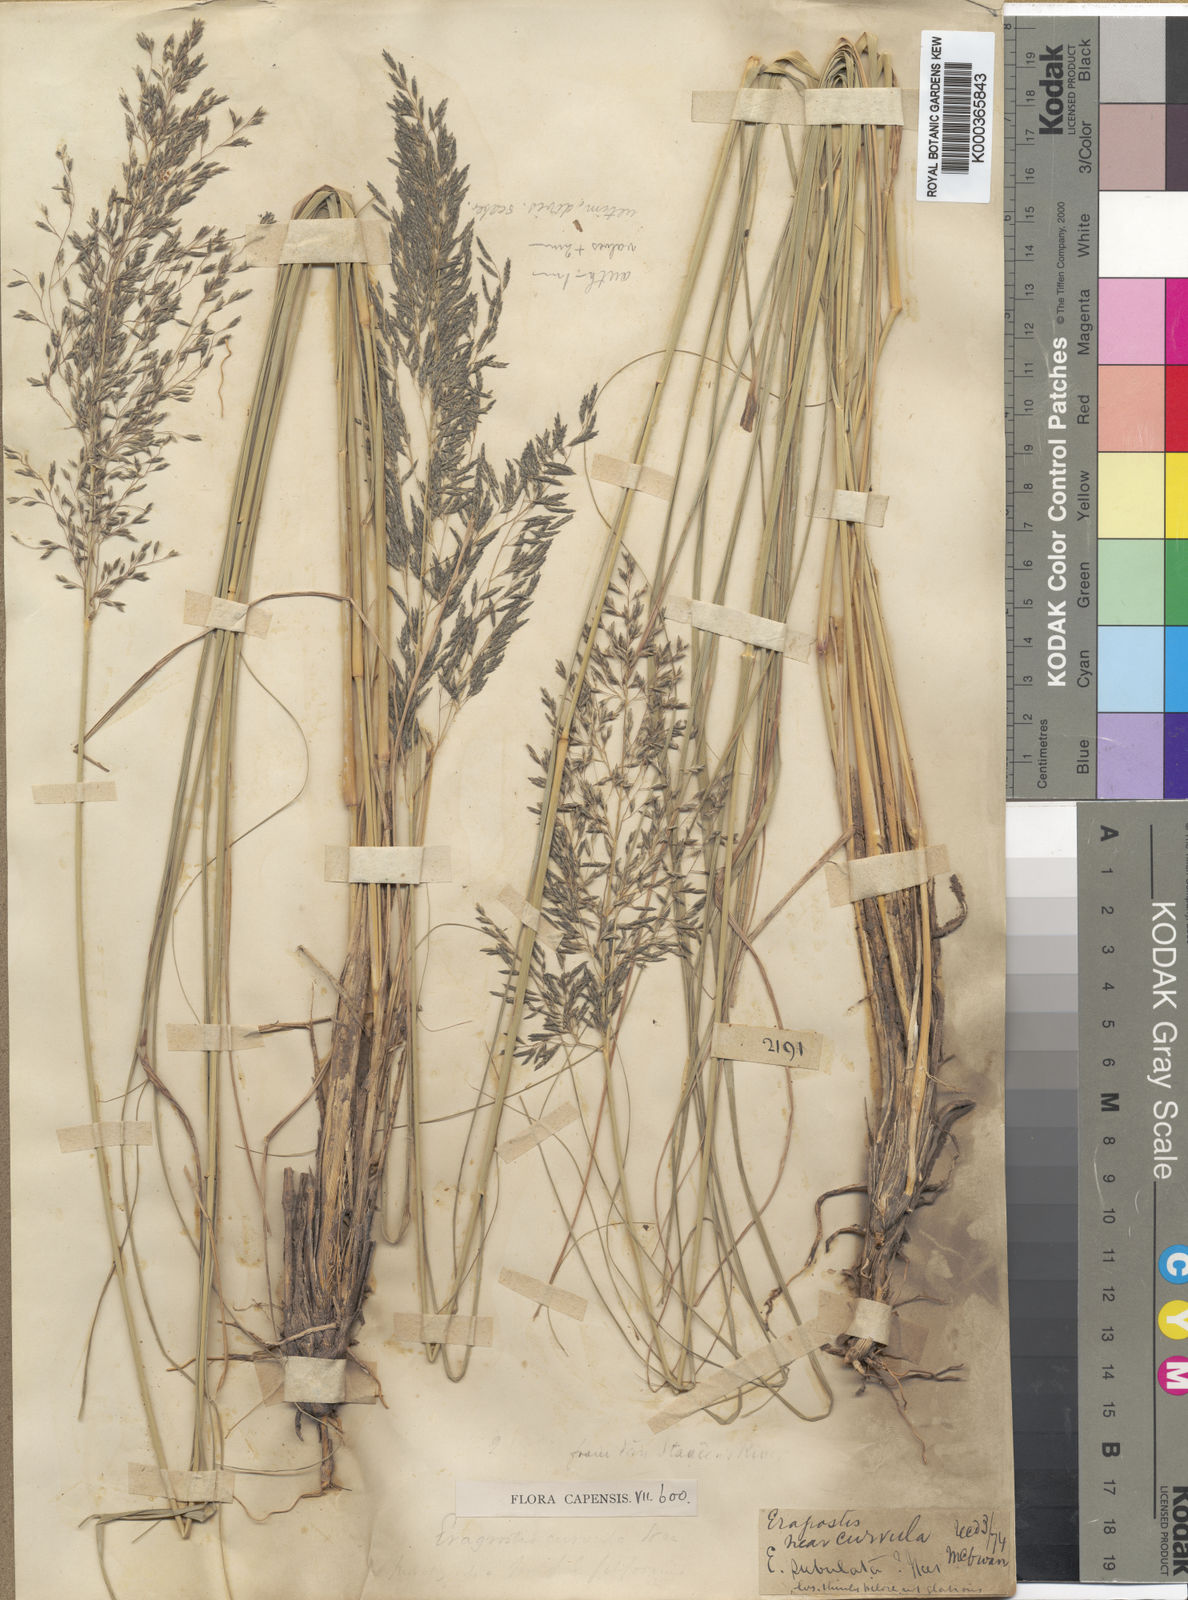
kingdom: Plantae
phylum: Tracheophyta
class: Liliopsida
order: Poales
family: Poaceae
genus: Eragrostis
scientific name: Eragrostis curvula
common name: African love-grass
